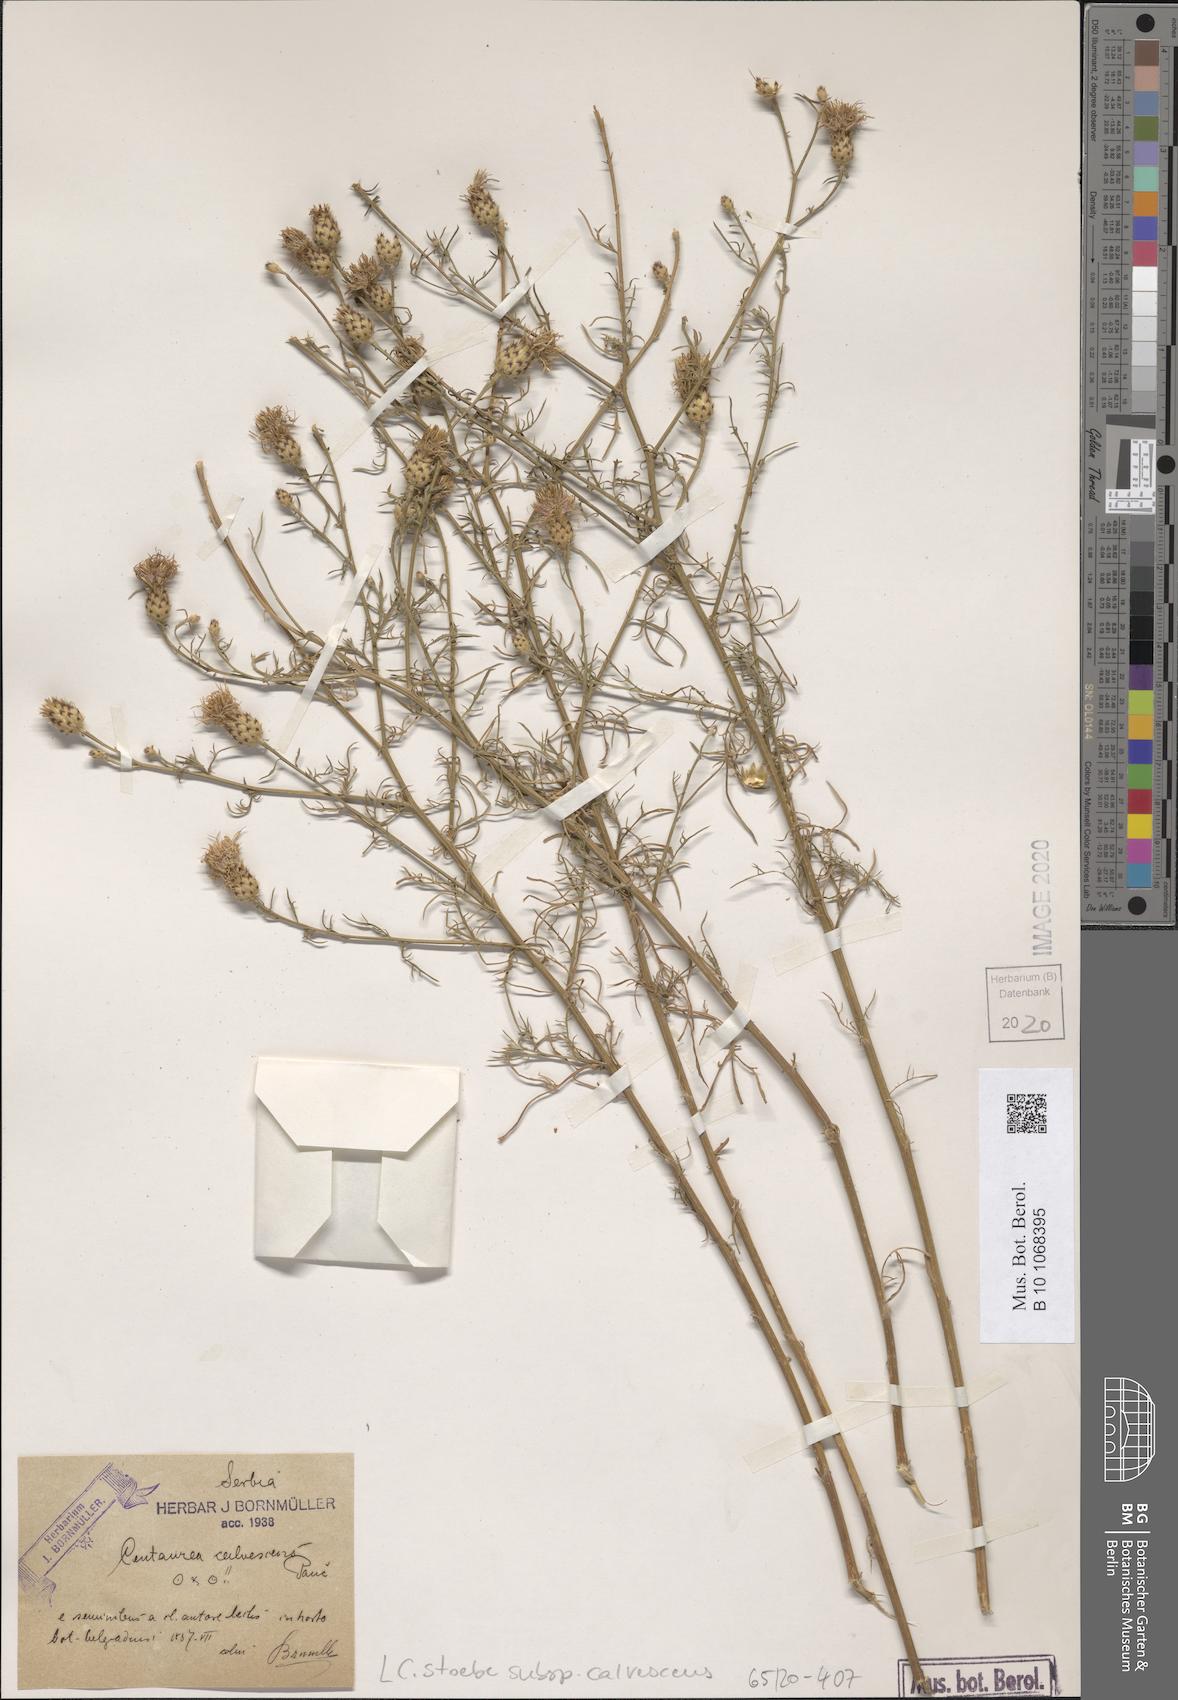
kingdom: Plantae
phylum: Tracheophyta
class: Magnoliopsida
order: Asterales
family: Asteraceae
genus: Centaurea
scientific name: Centaurea reichenbachii
